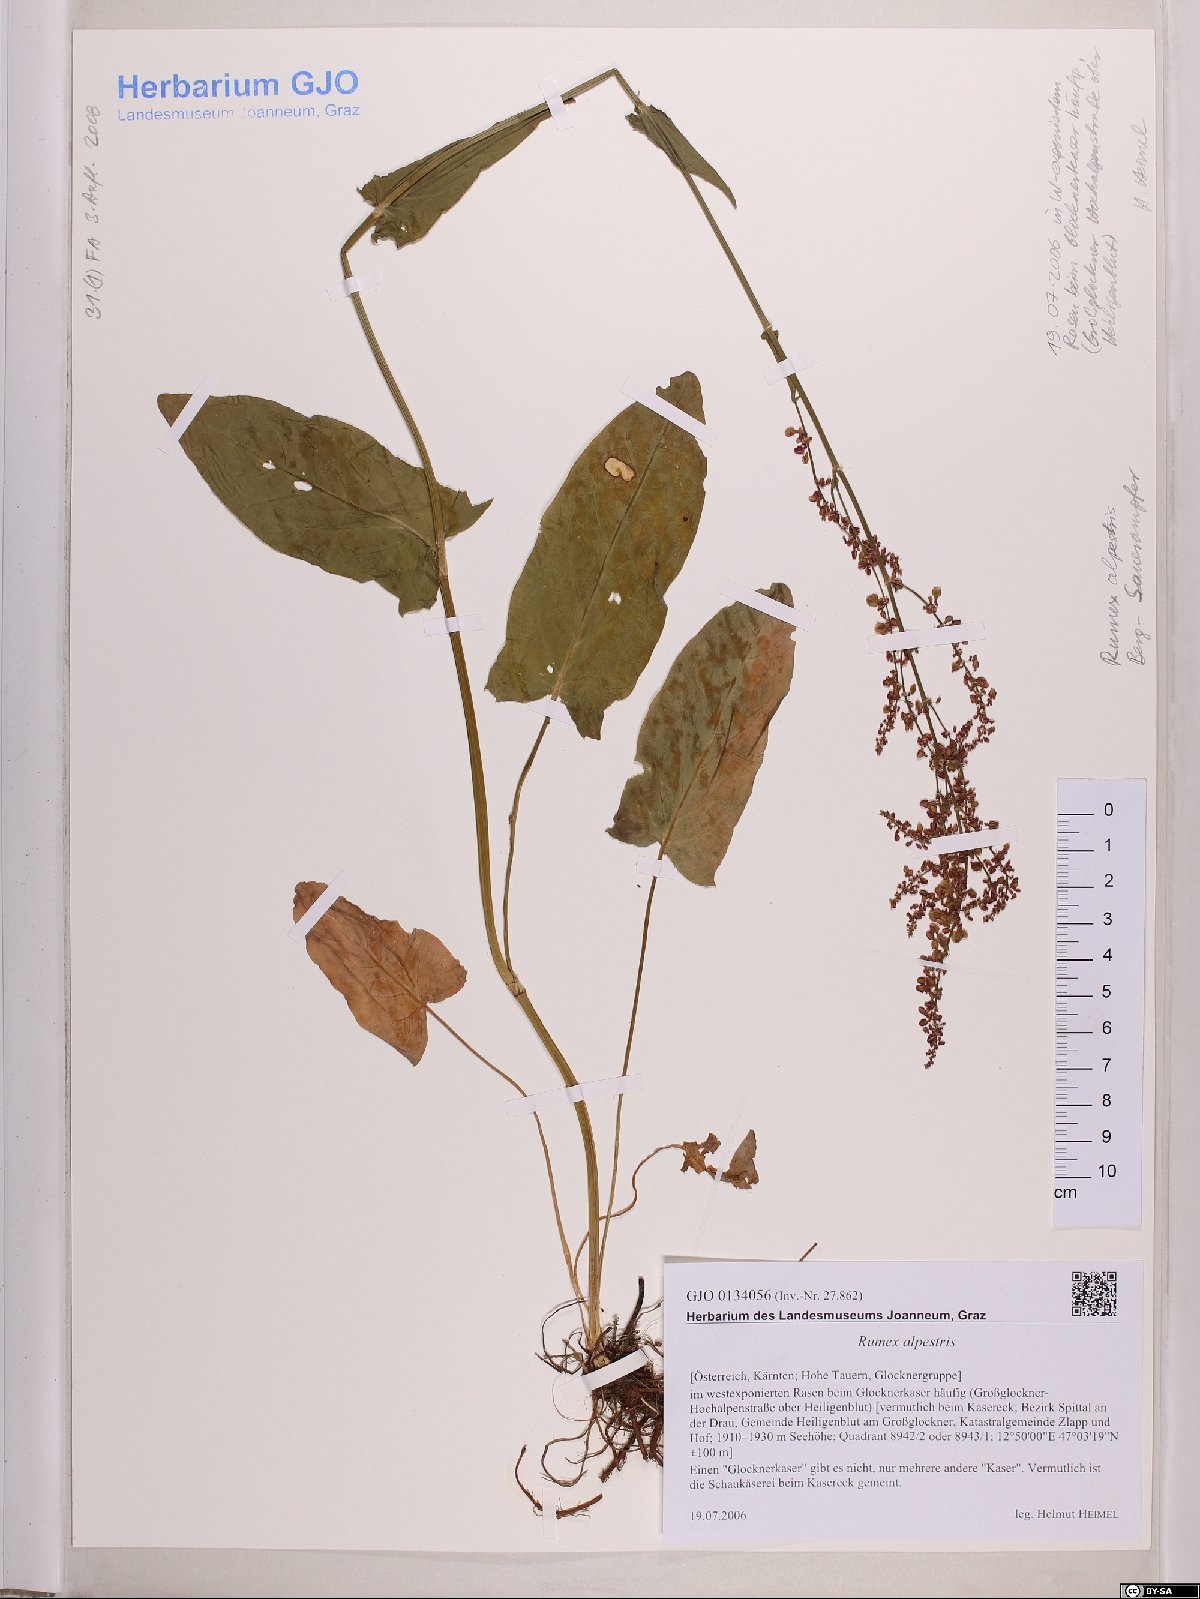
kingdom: Plantae
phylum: Tracheophyta
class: Magnoliopsida
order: Caryophyllales
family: Polygonaceae
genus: Rumex
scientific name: Rumex scutatus
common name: French sorrel
